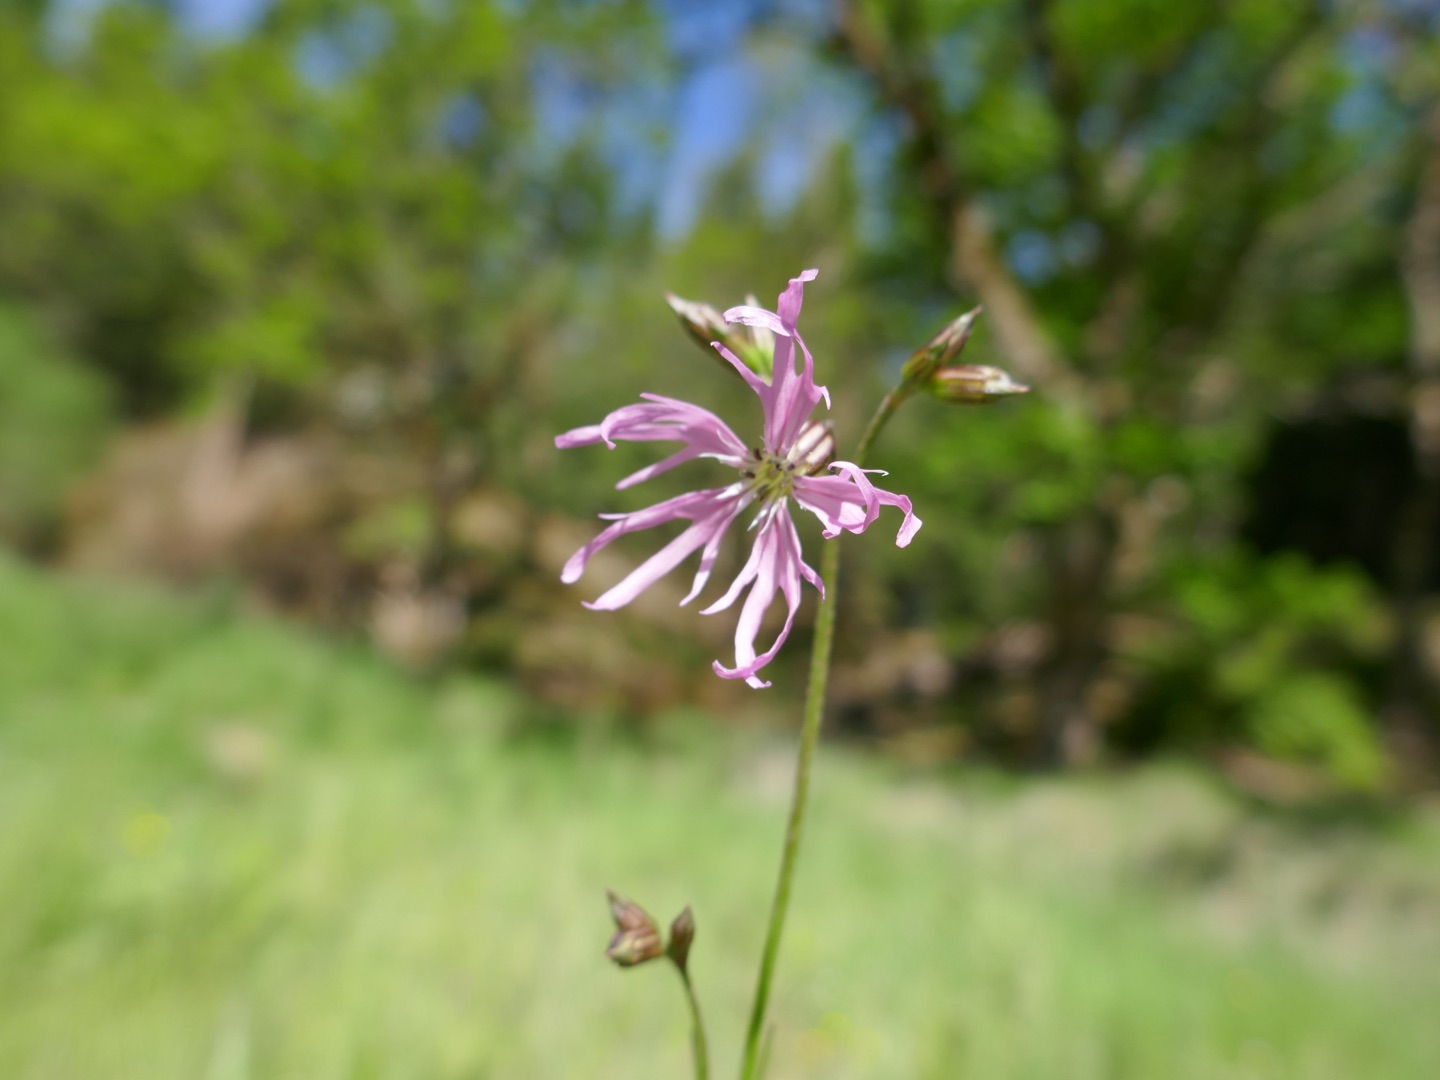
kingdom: Plantae
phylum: Tracheophyta
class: Magnoliopsida
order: Caryophyllales
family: Caryophyllaceae
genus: Silene
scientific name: Silene flos-cuculi
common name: Trævlekrone
